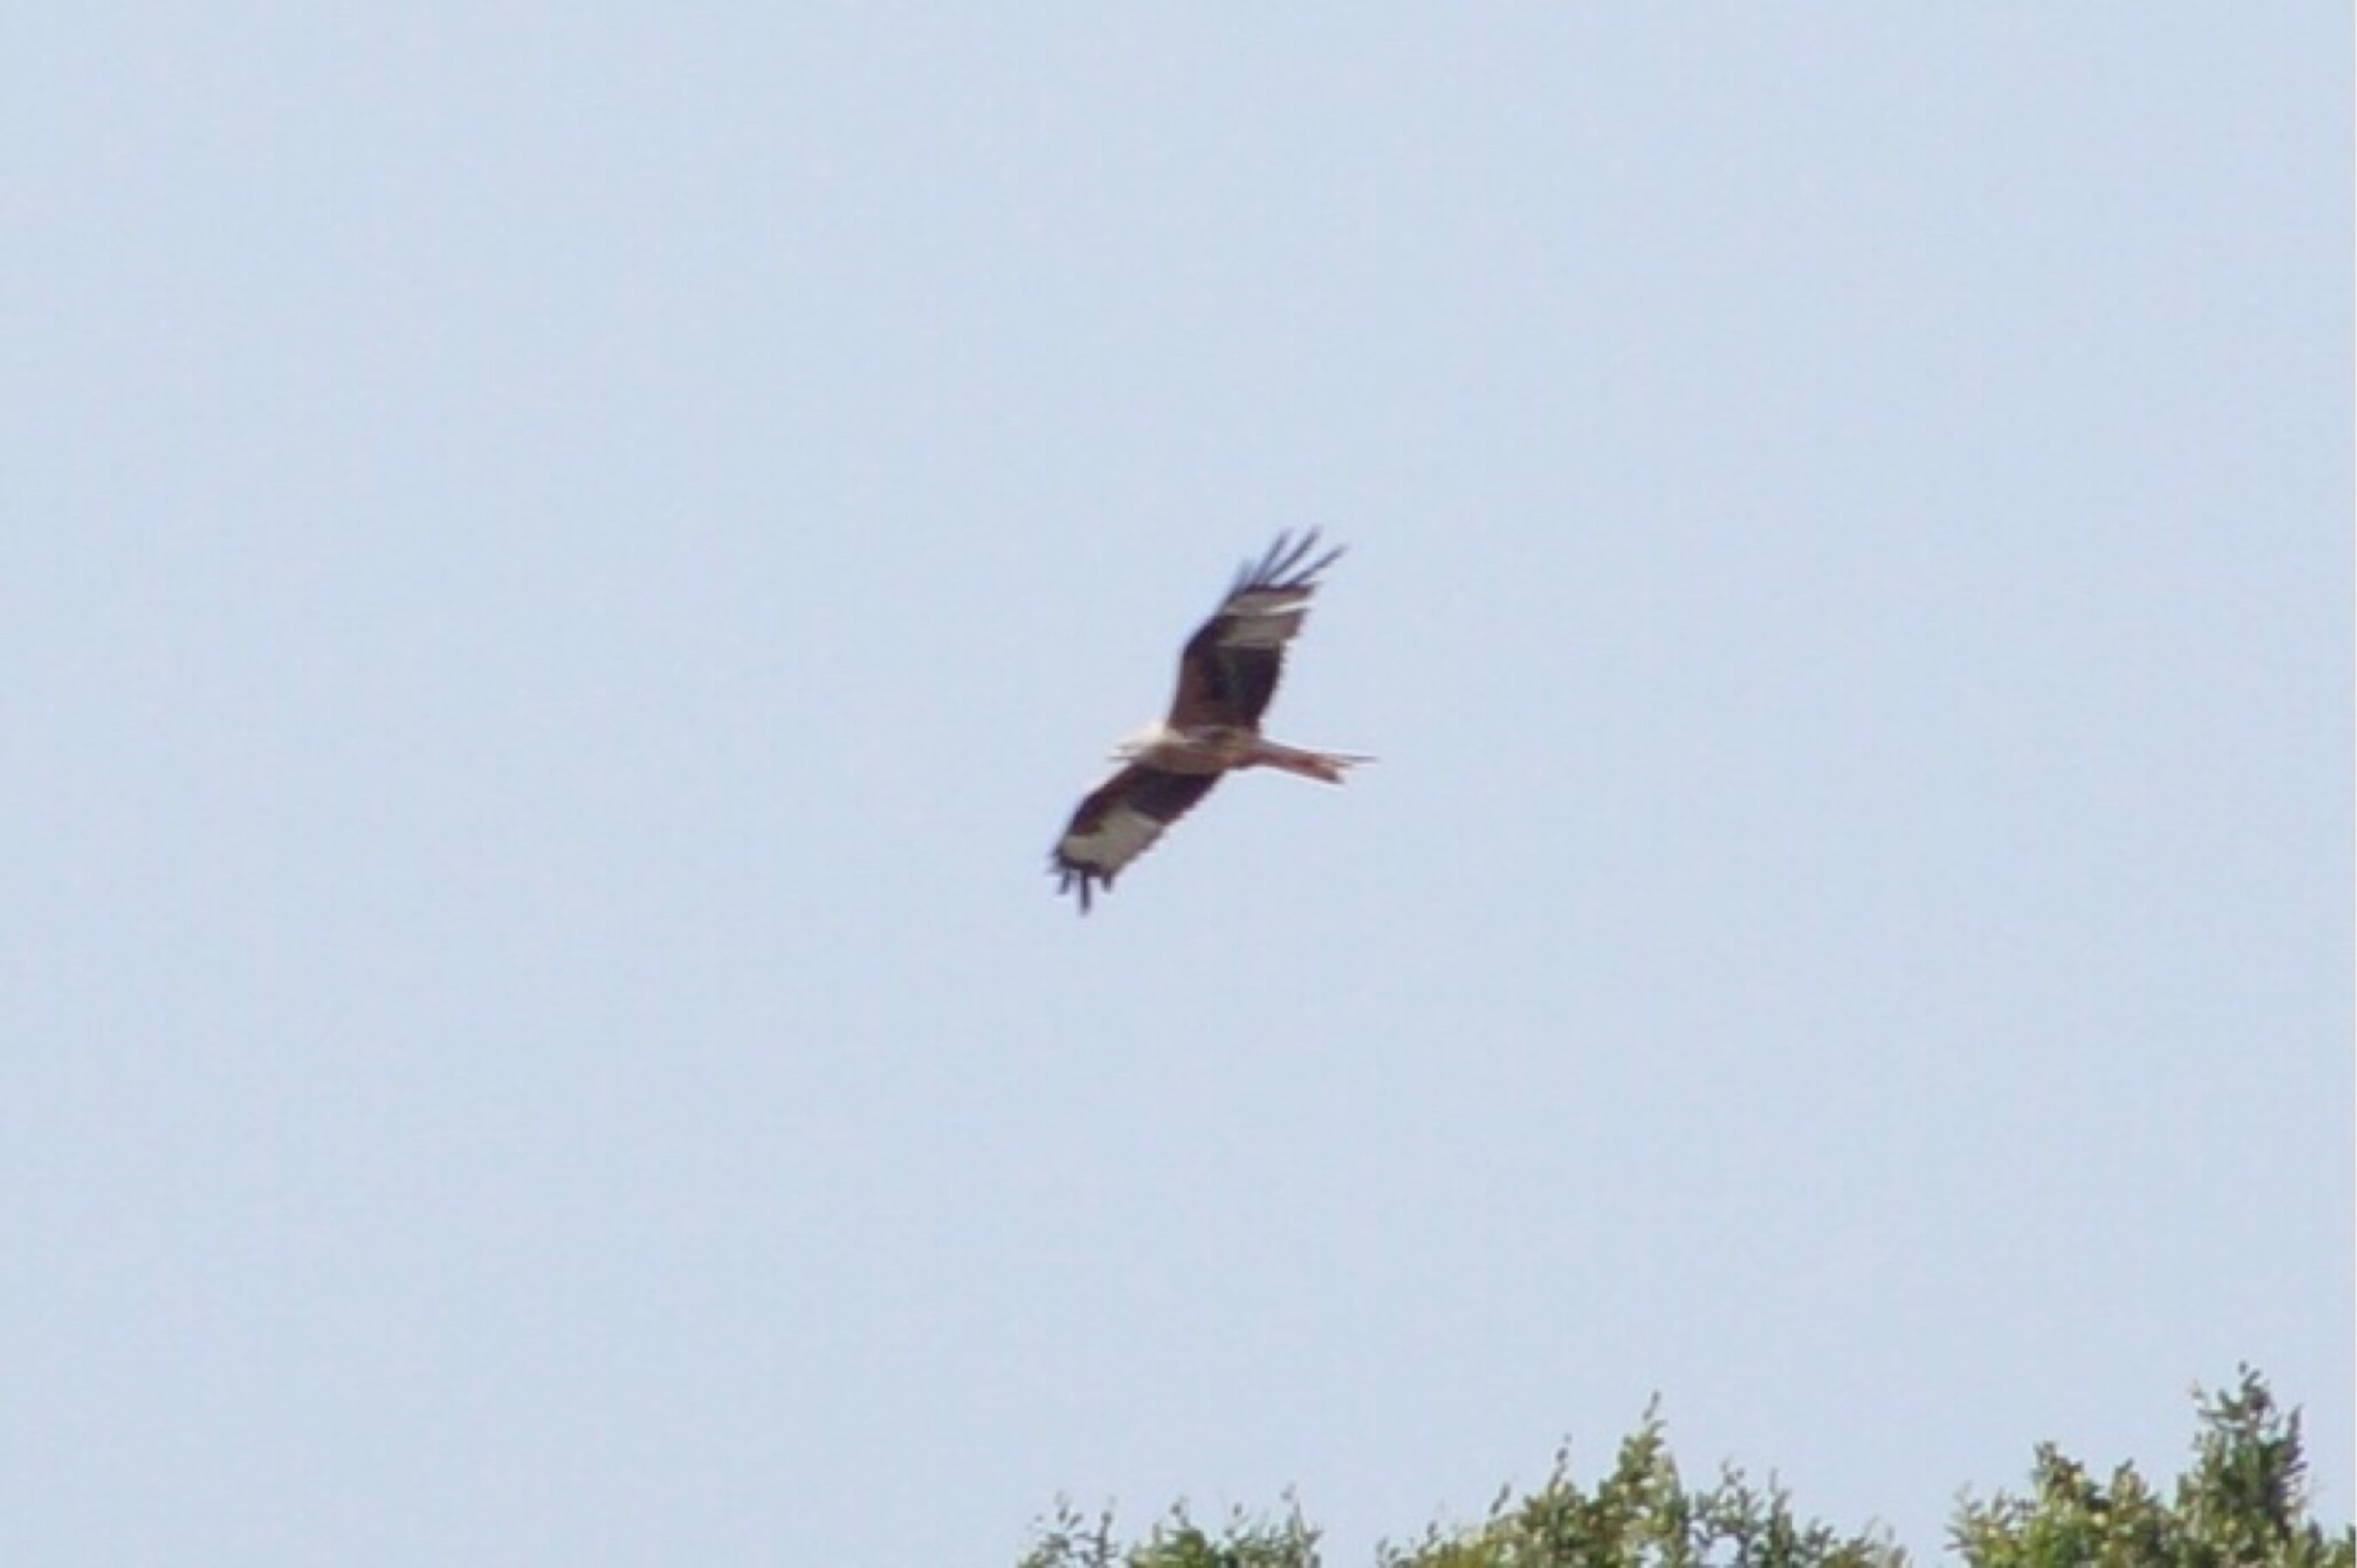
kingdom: Animalia
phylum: Chordata
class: Aves
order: Accipitriformes
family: Accipitridae
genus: Milvus
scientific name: Milvus milvus
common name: Rød glente
